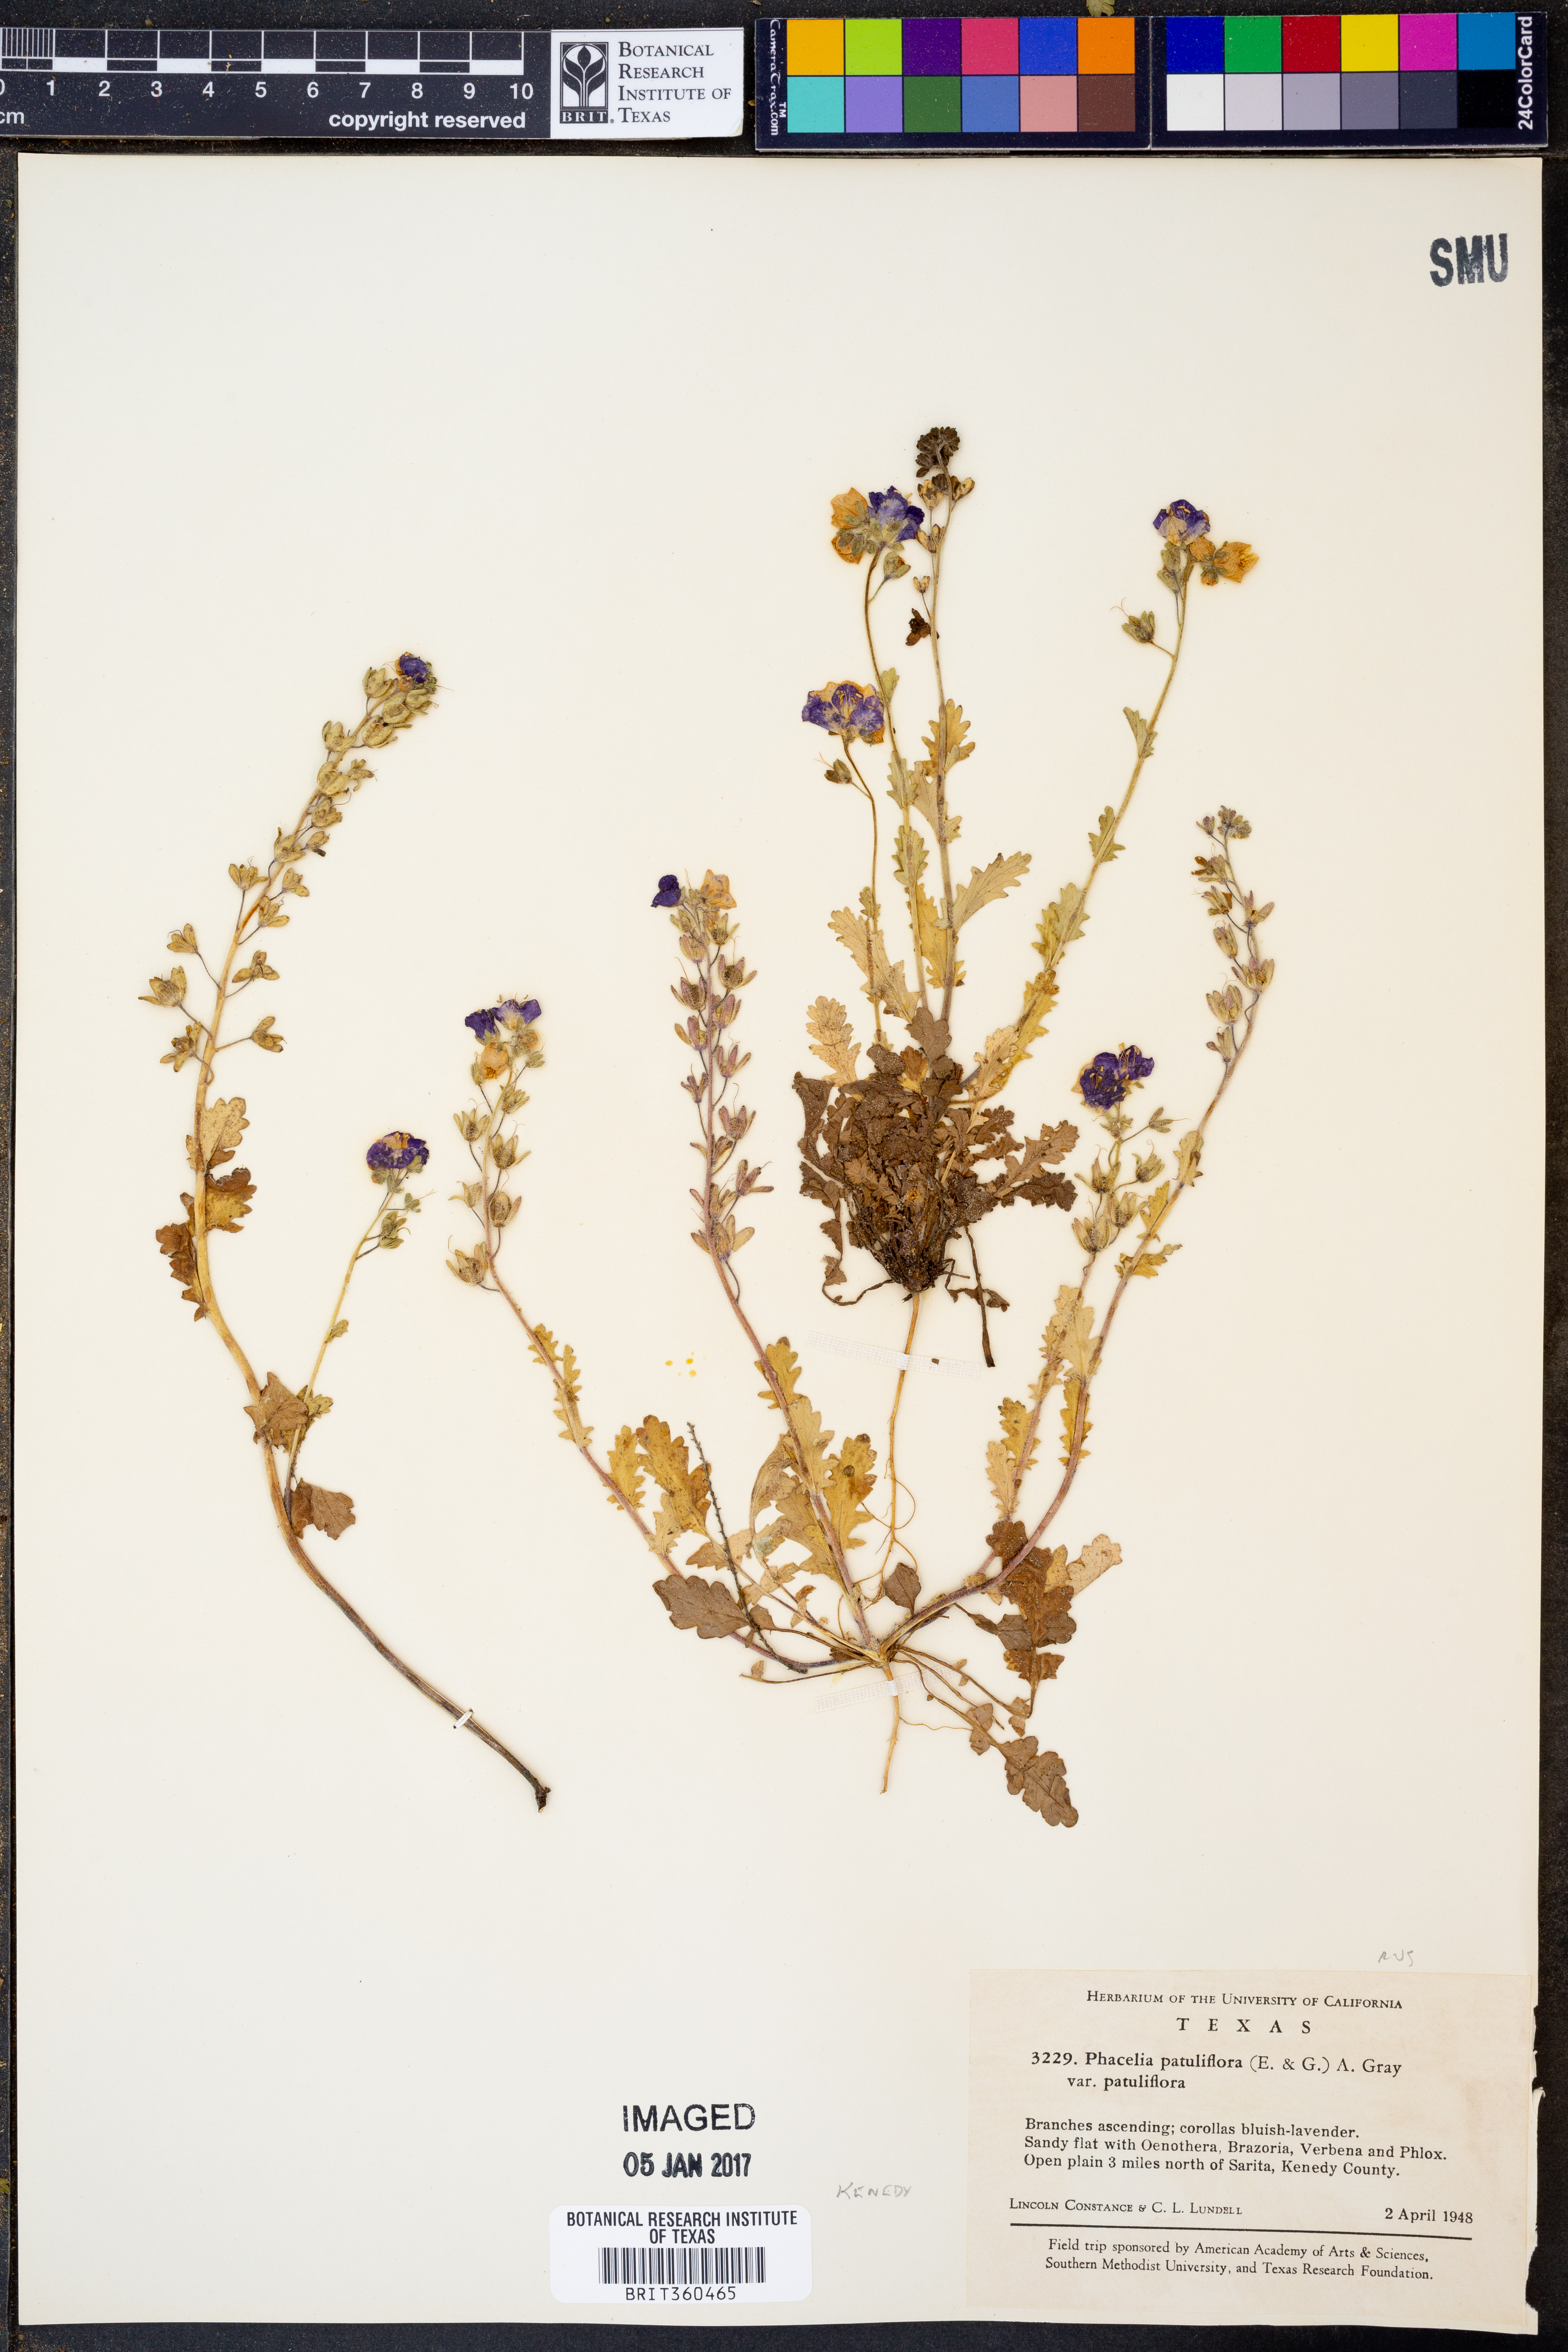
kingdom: Plantae
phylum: Tracheophyta
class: Magnoliopsida
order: Boraginales
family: Hydrophyllaceae
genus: Phacelia
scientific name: Phacelia patuliflora
